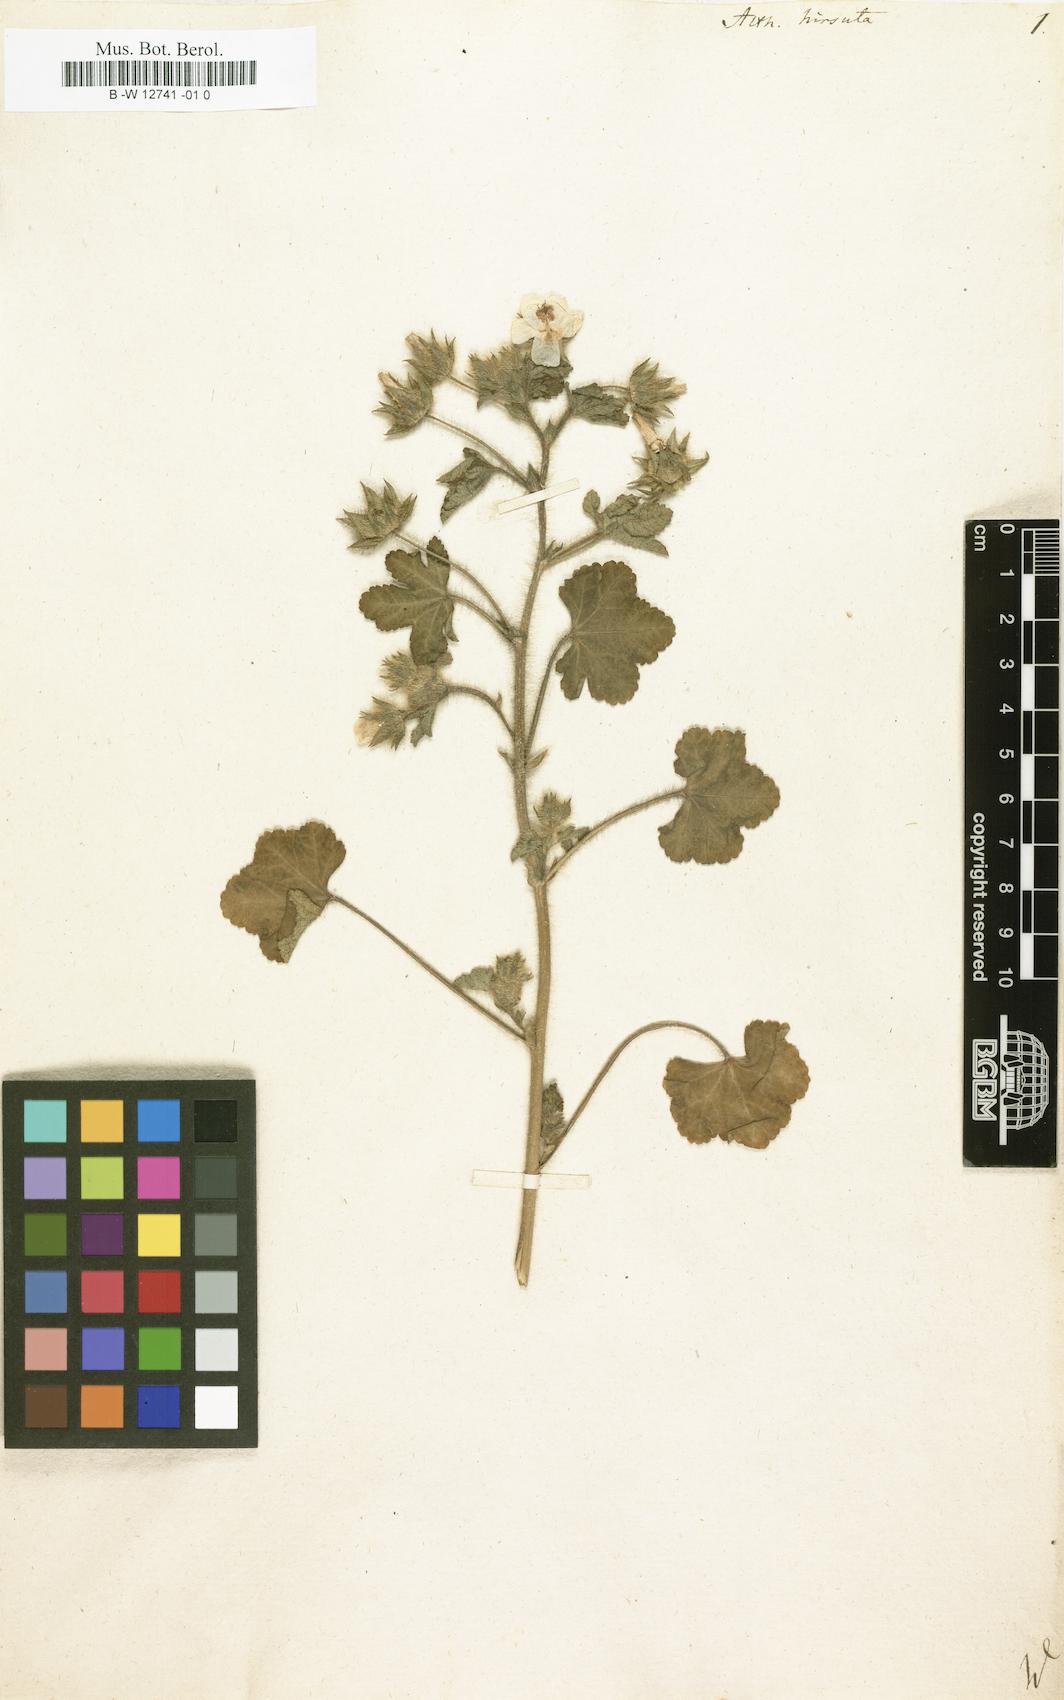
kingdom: Plantae
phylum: Tracheophyta
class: Magnoliopsida
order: Malvales
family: Malvaceae
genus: Althaea
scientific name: Althaea hirsuta
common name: Rough marsh-mallow
